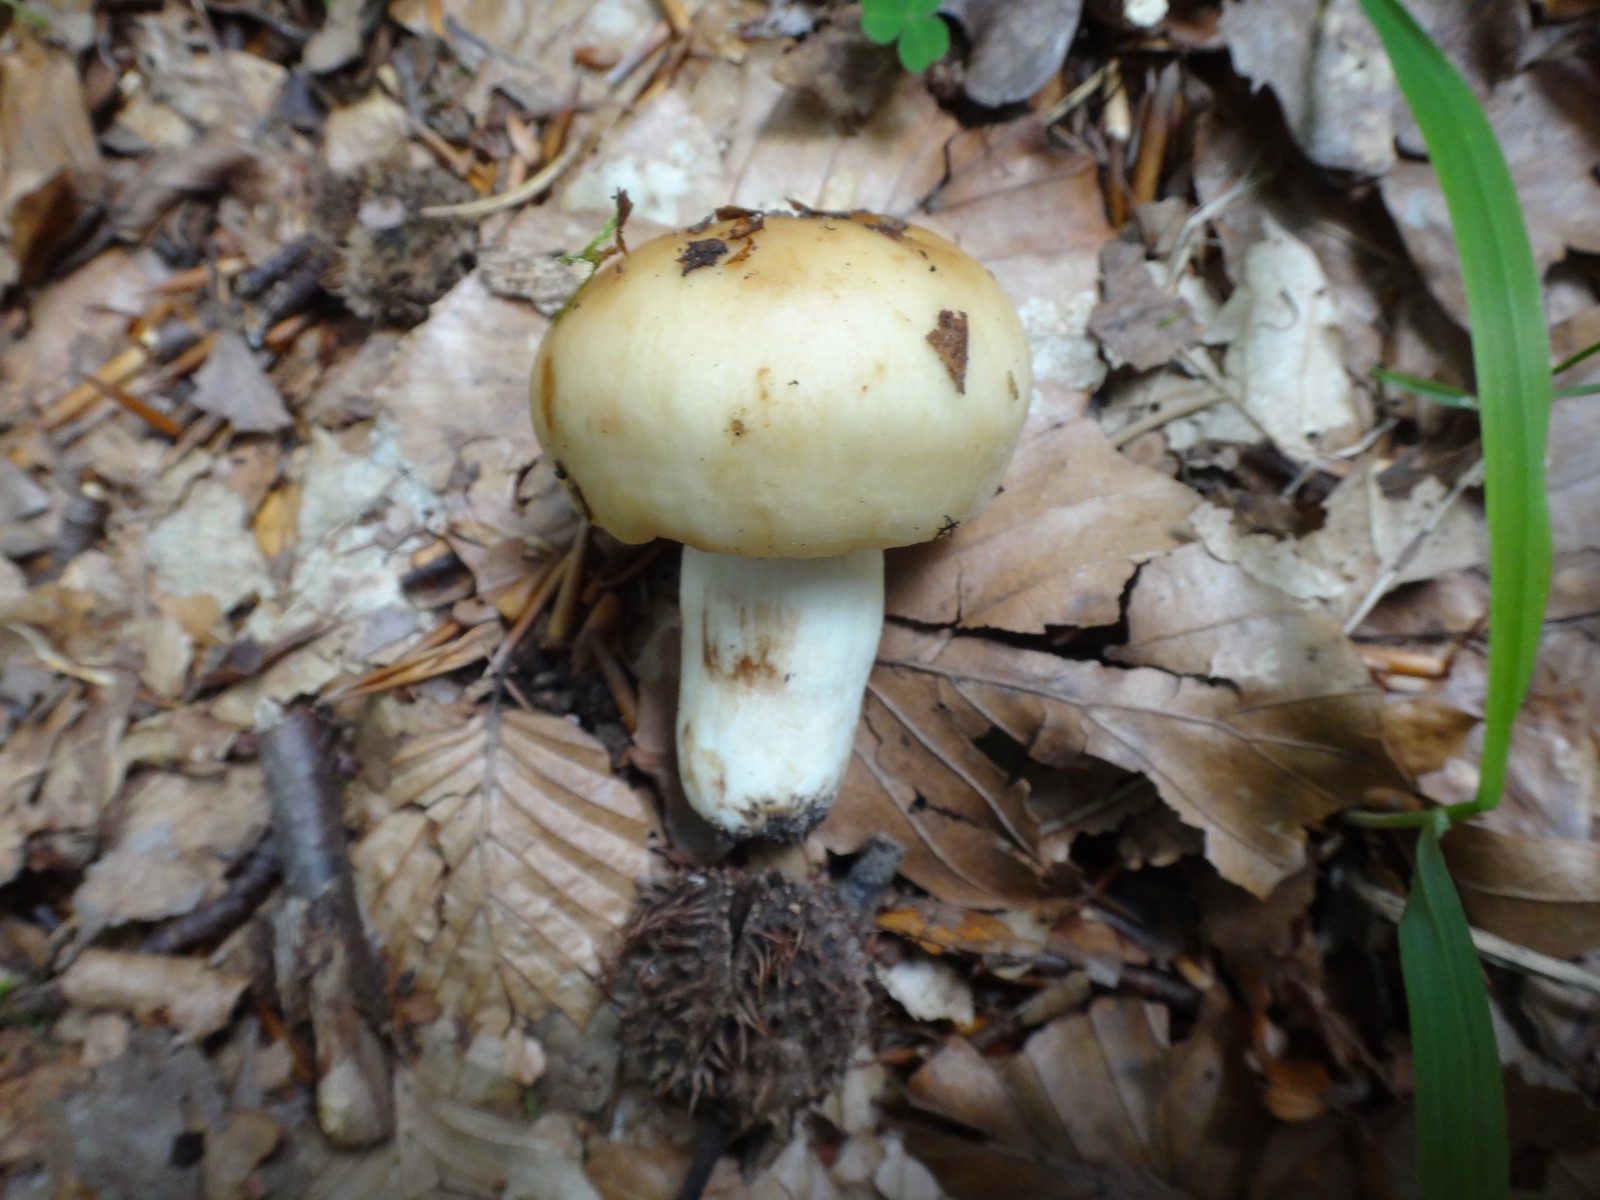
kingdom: Fungi
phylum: Basidiomycota
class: Agaricomycetes
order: Russulales
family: Russulaceae
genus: Russula
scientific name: Russula grata
